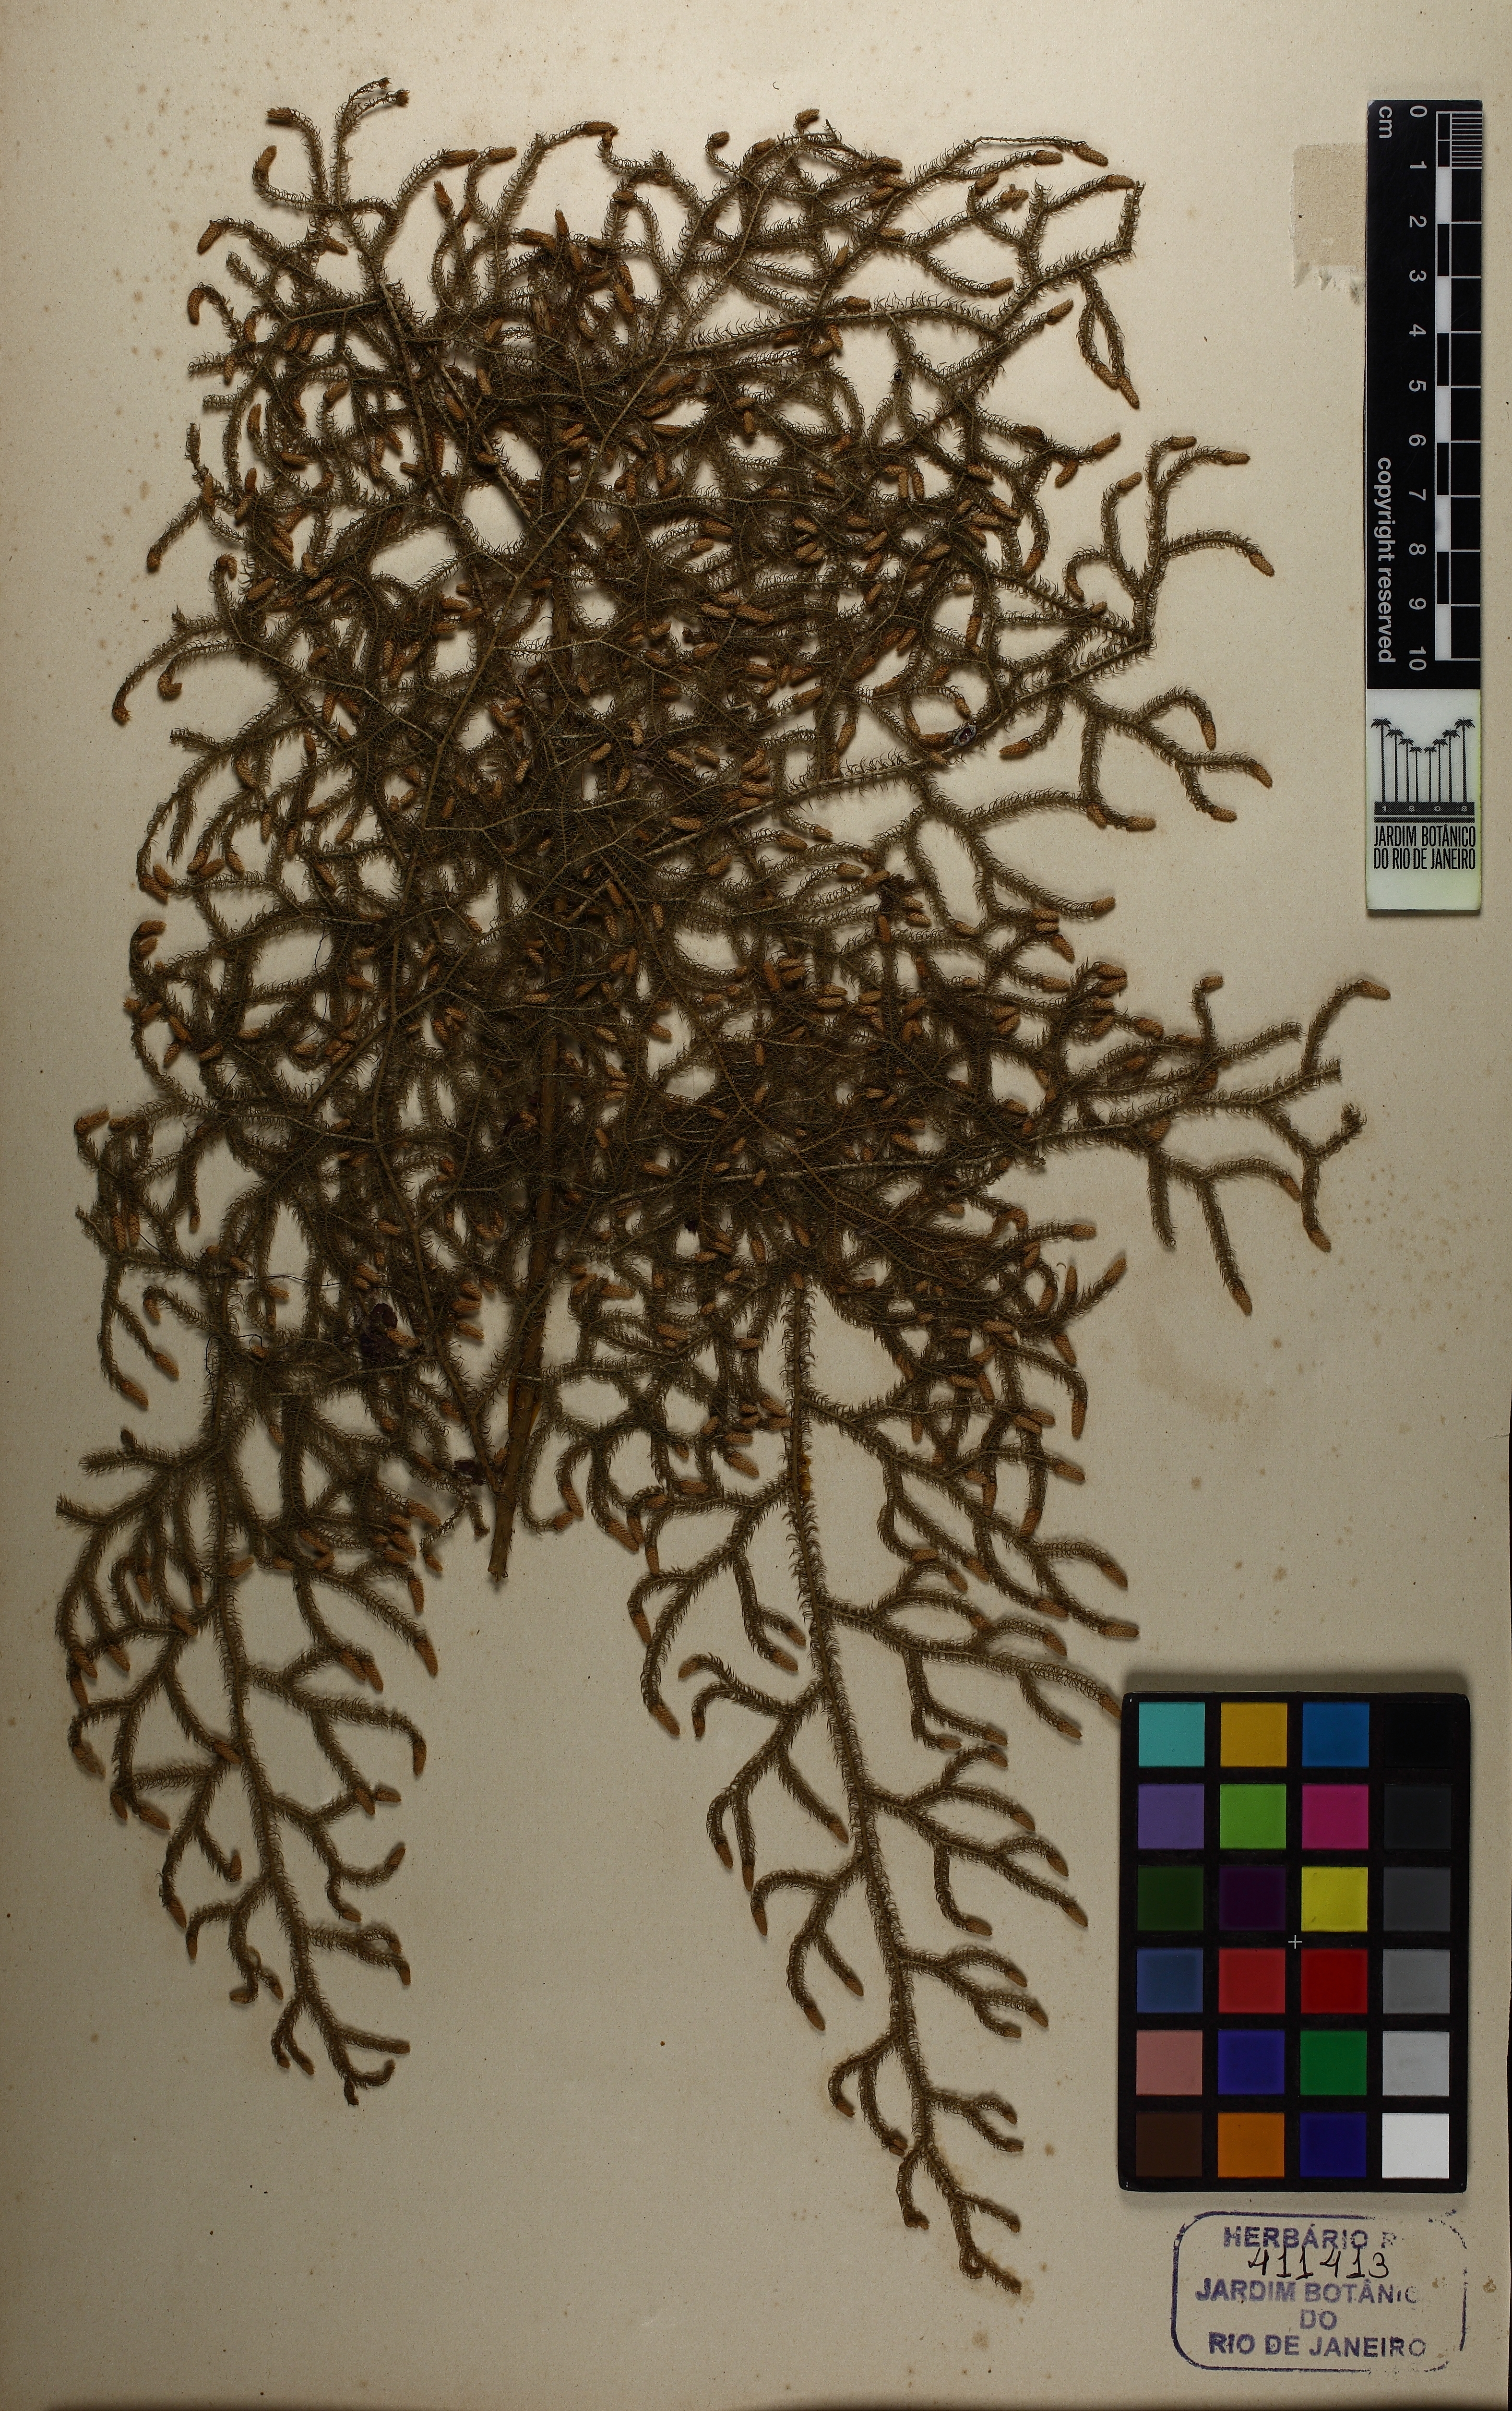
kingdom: Plantae
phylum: Tracheophyta
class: Lycopodiopsida
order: Lycopodiales
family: Lycopodiaceae
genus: Palhinhaea
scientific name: Palhinhaea cernua
